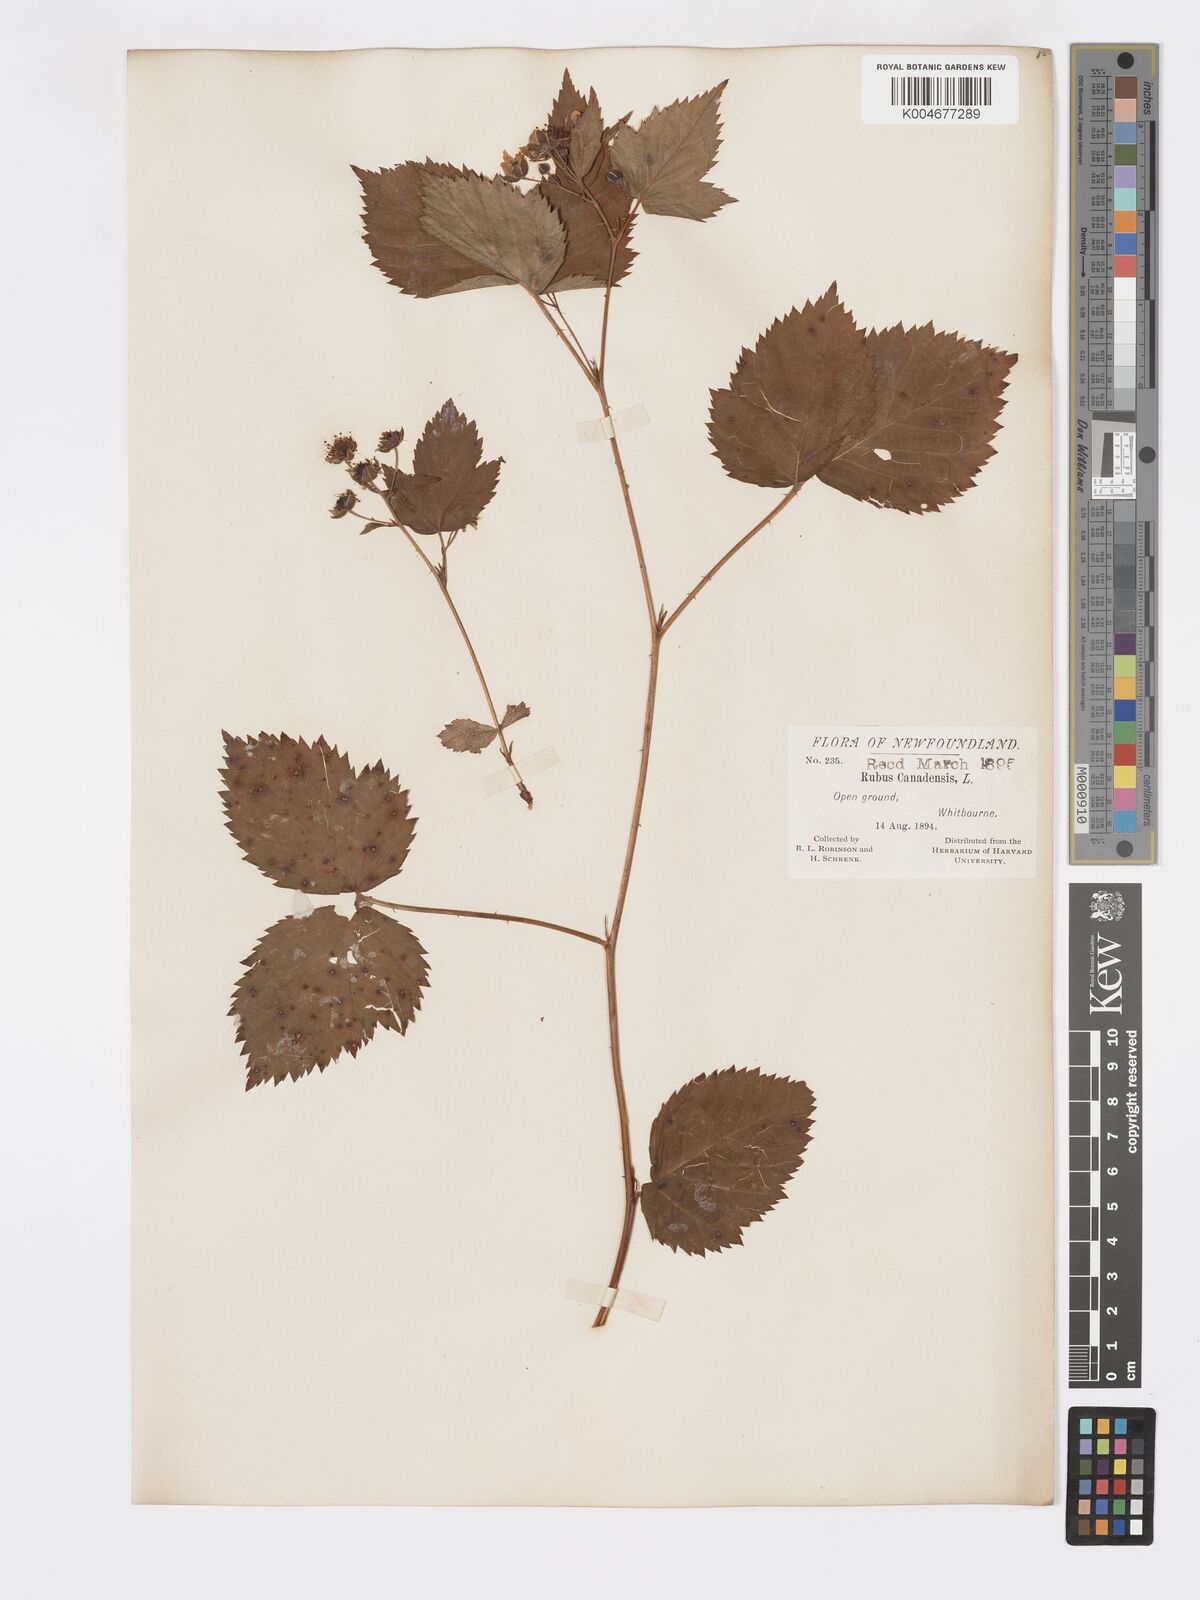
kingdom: Plantae
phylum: Tracheophyta
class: Magnoliopsida
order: Rosales
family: Rosaceae
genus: Rubus
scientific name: Rubus canadensis
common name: Smooth blackberry
